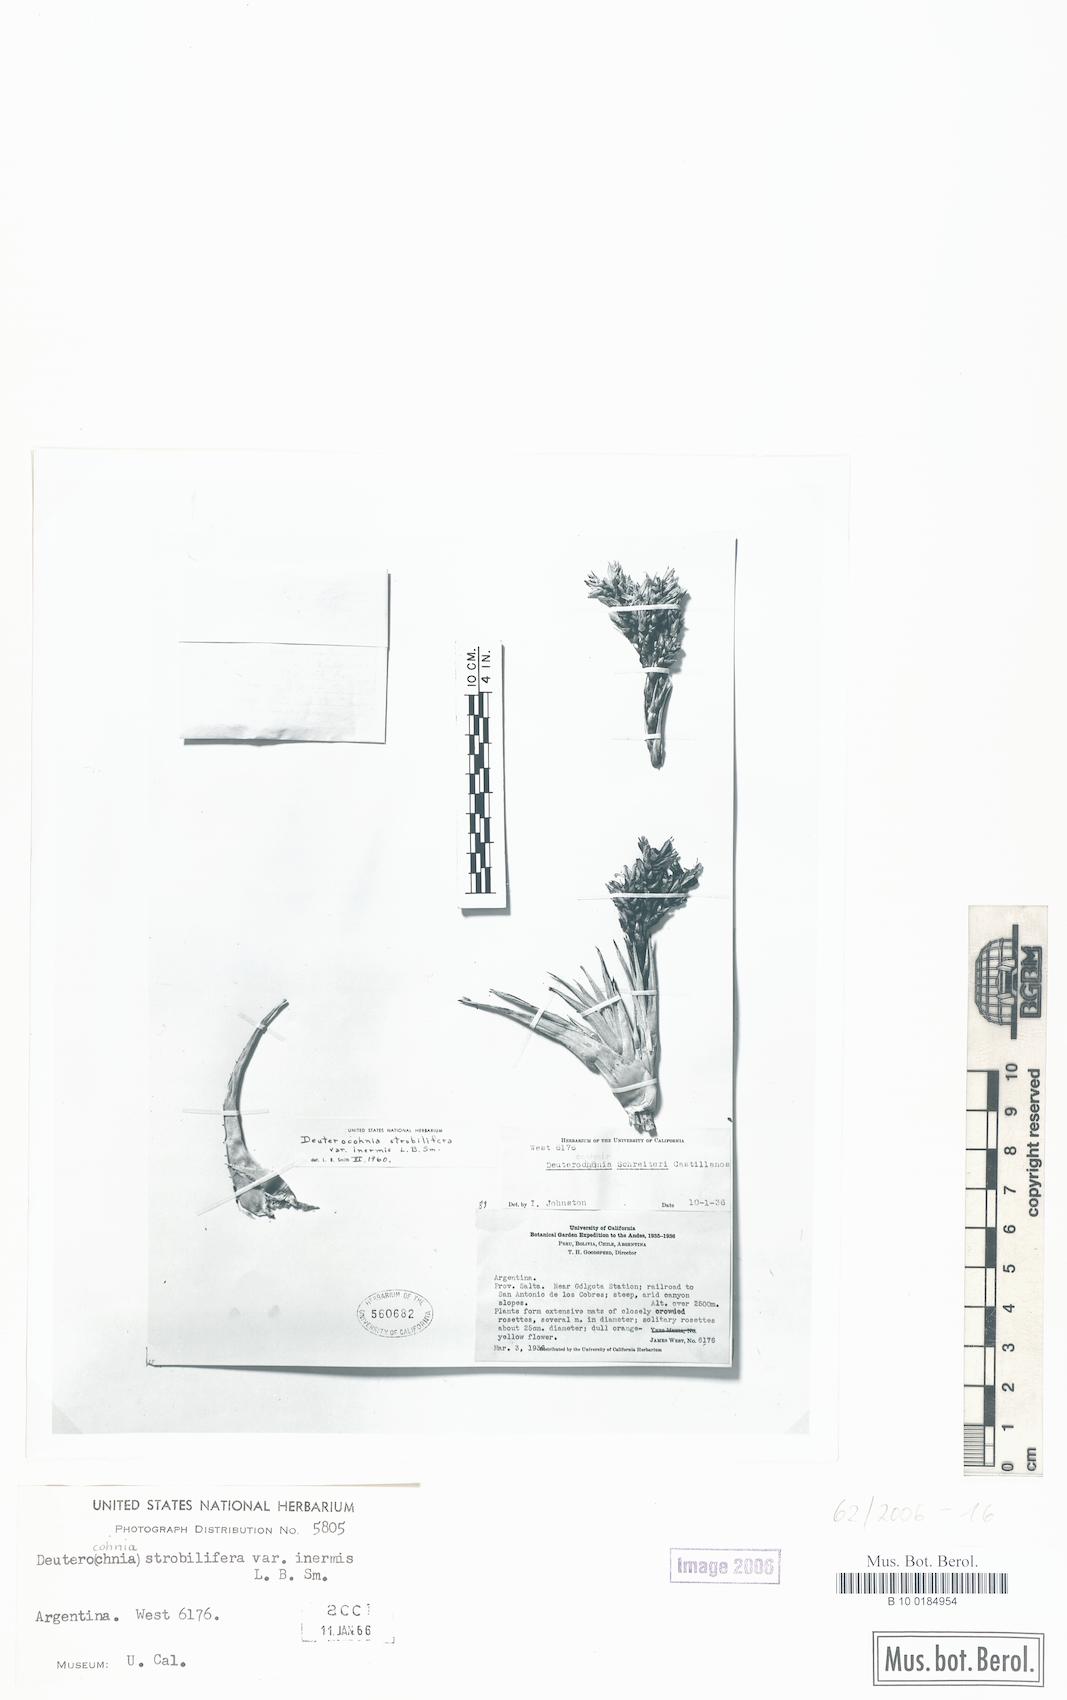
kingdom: Plantae
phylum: Tracheophyta
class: Liliopsida
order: Poales
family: Bromeliaceae
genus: Deuterocohnia
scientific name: Deuterocohnia strobilifera
